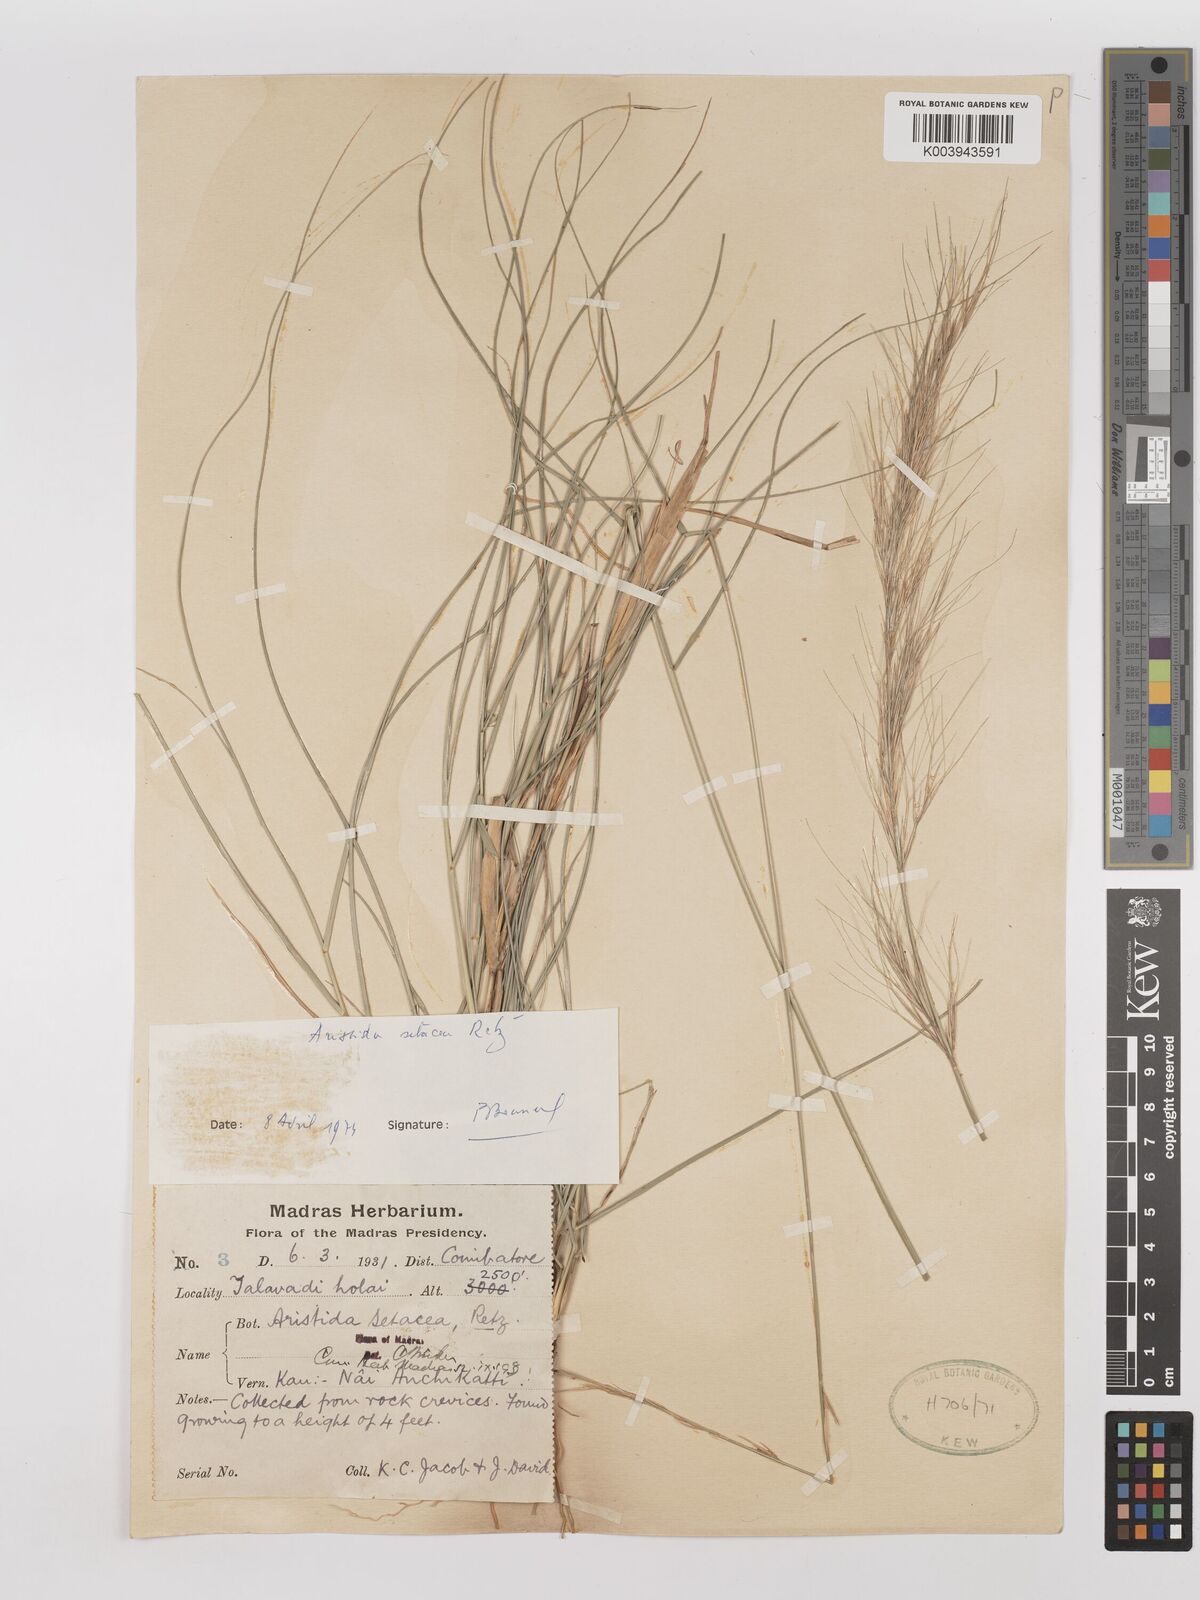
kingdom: Plantae
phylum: Tracheophyta
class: Liliopsida
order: Poales
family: Poaceae
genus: Aristida
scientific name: Aristida setacea
